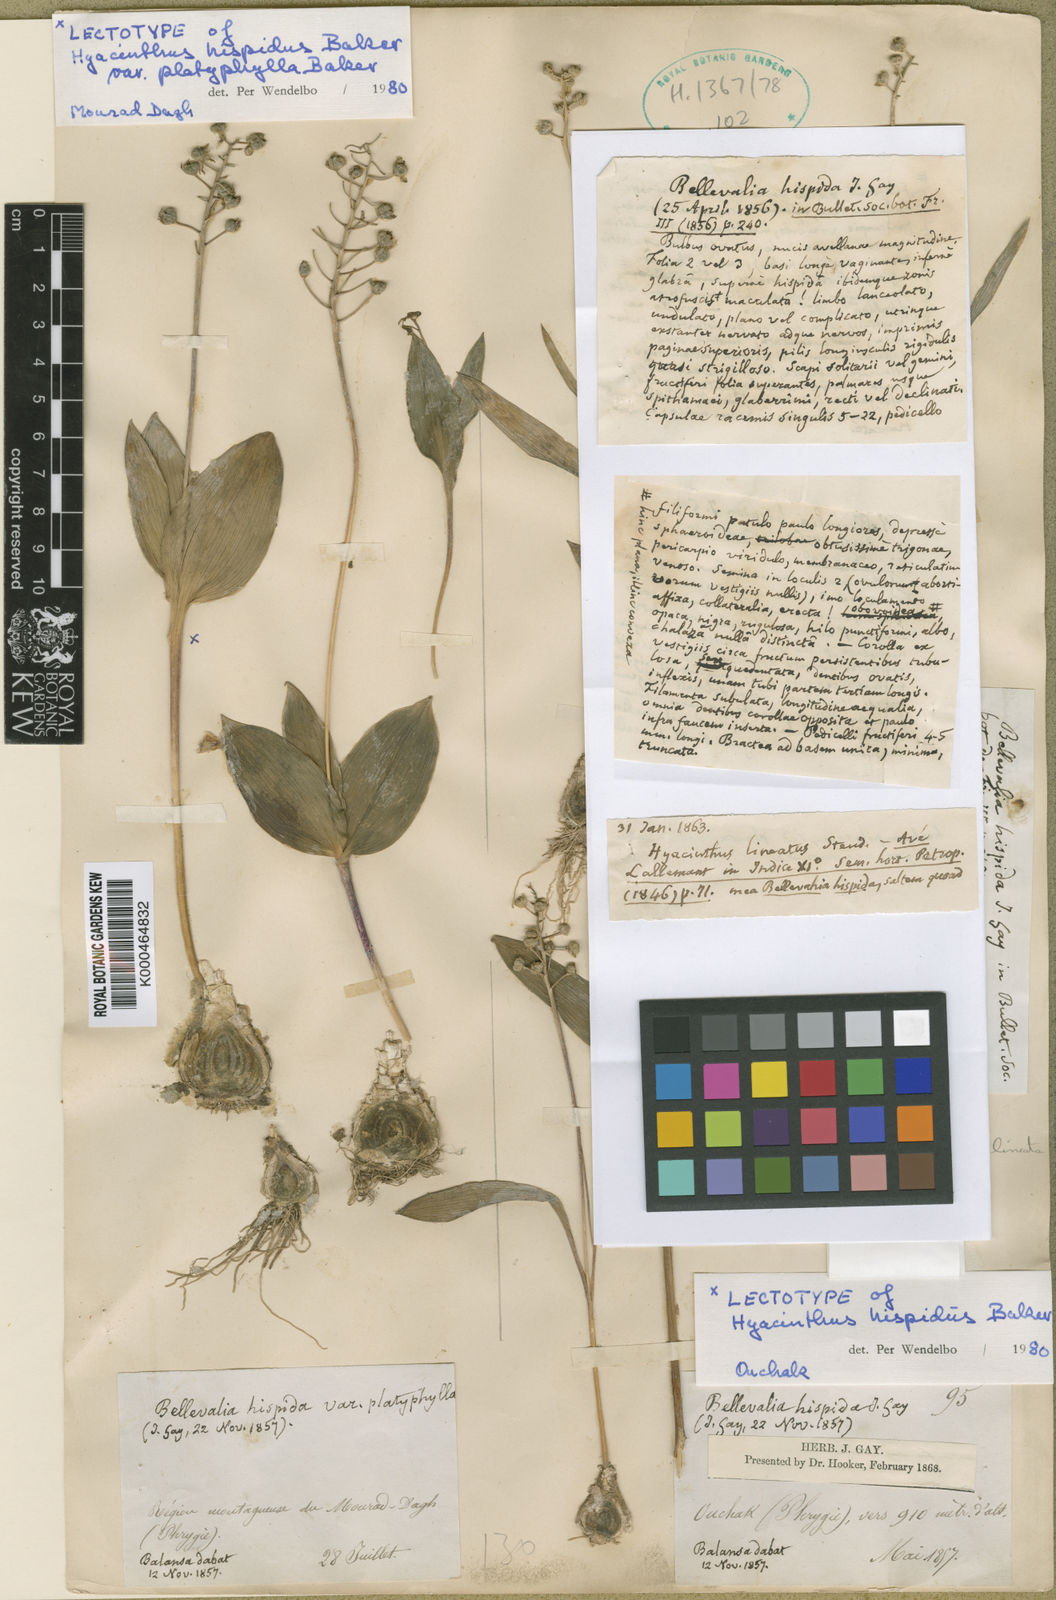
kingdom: Plantae
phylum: Tracheophyta
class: Liliopsida
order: Asparagales
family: Asparagaceae
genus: Hyacinthella
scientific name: Hyacinthella lineata
